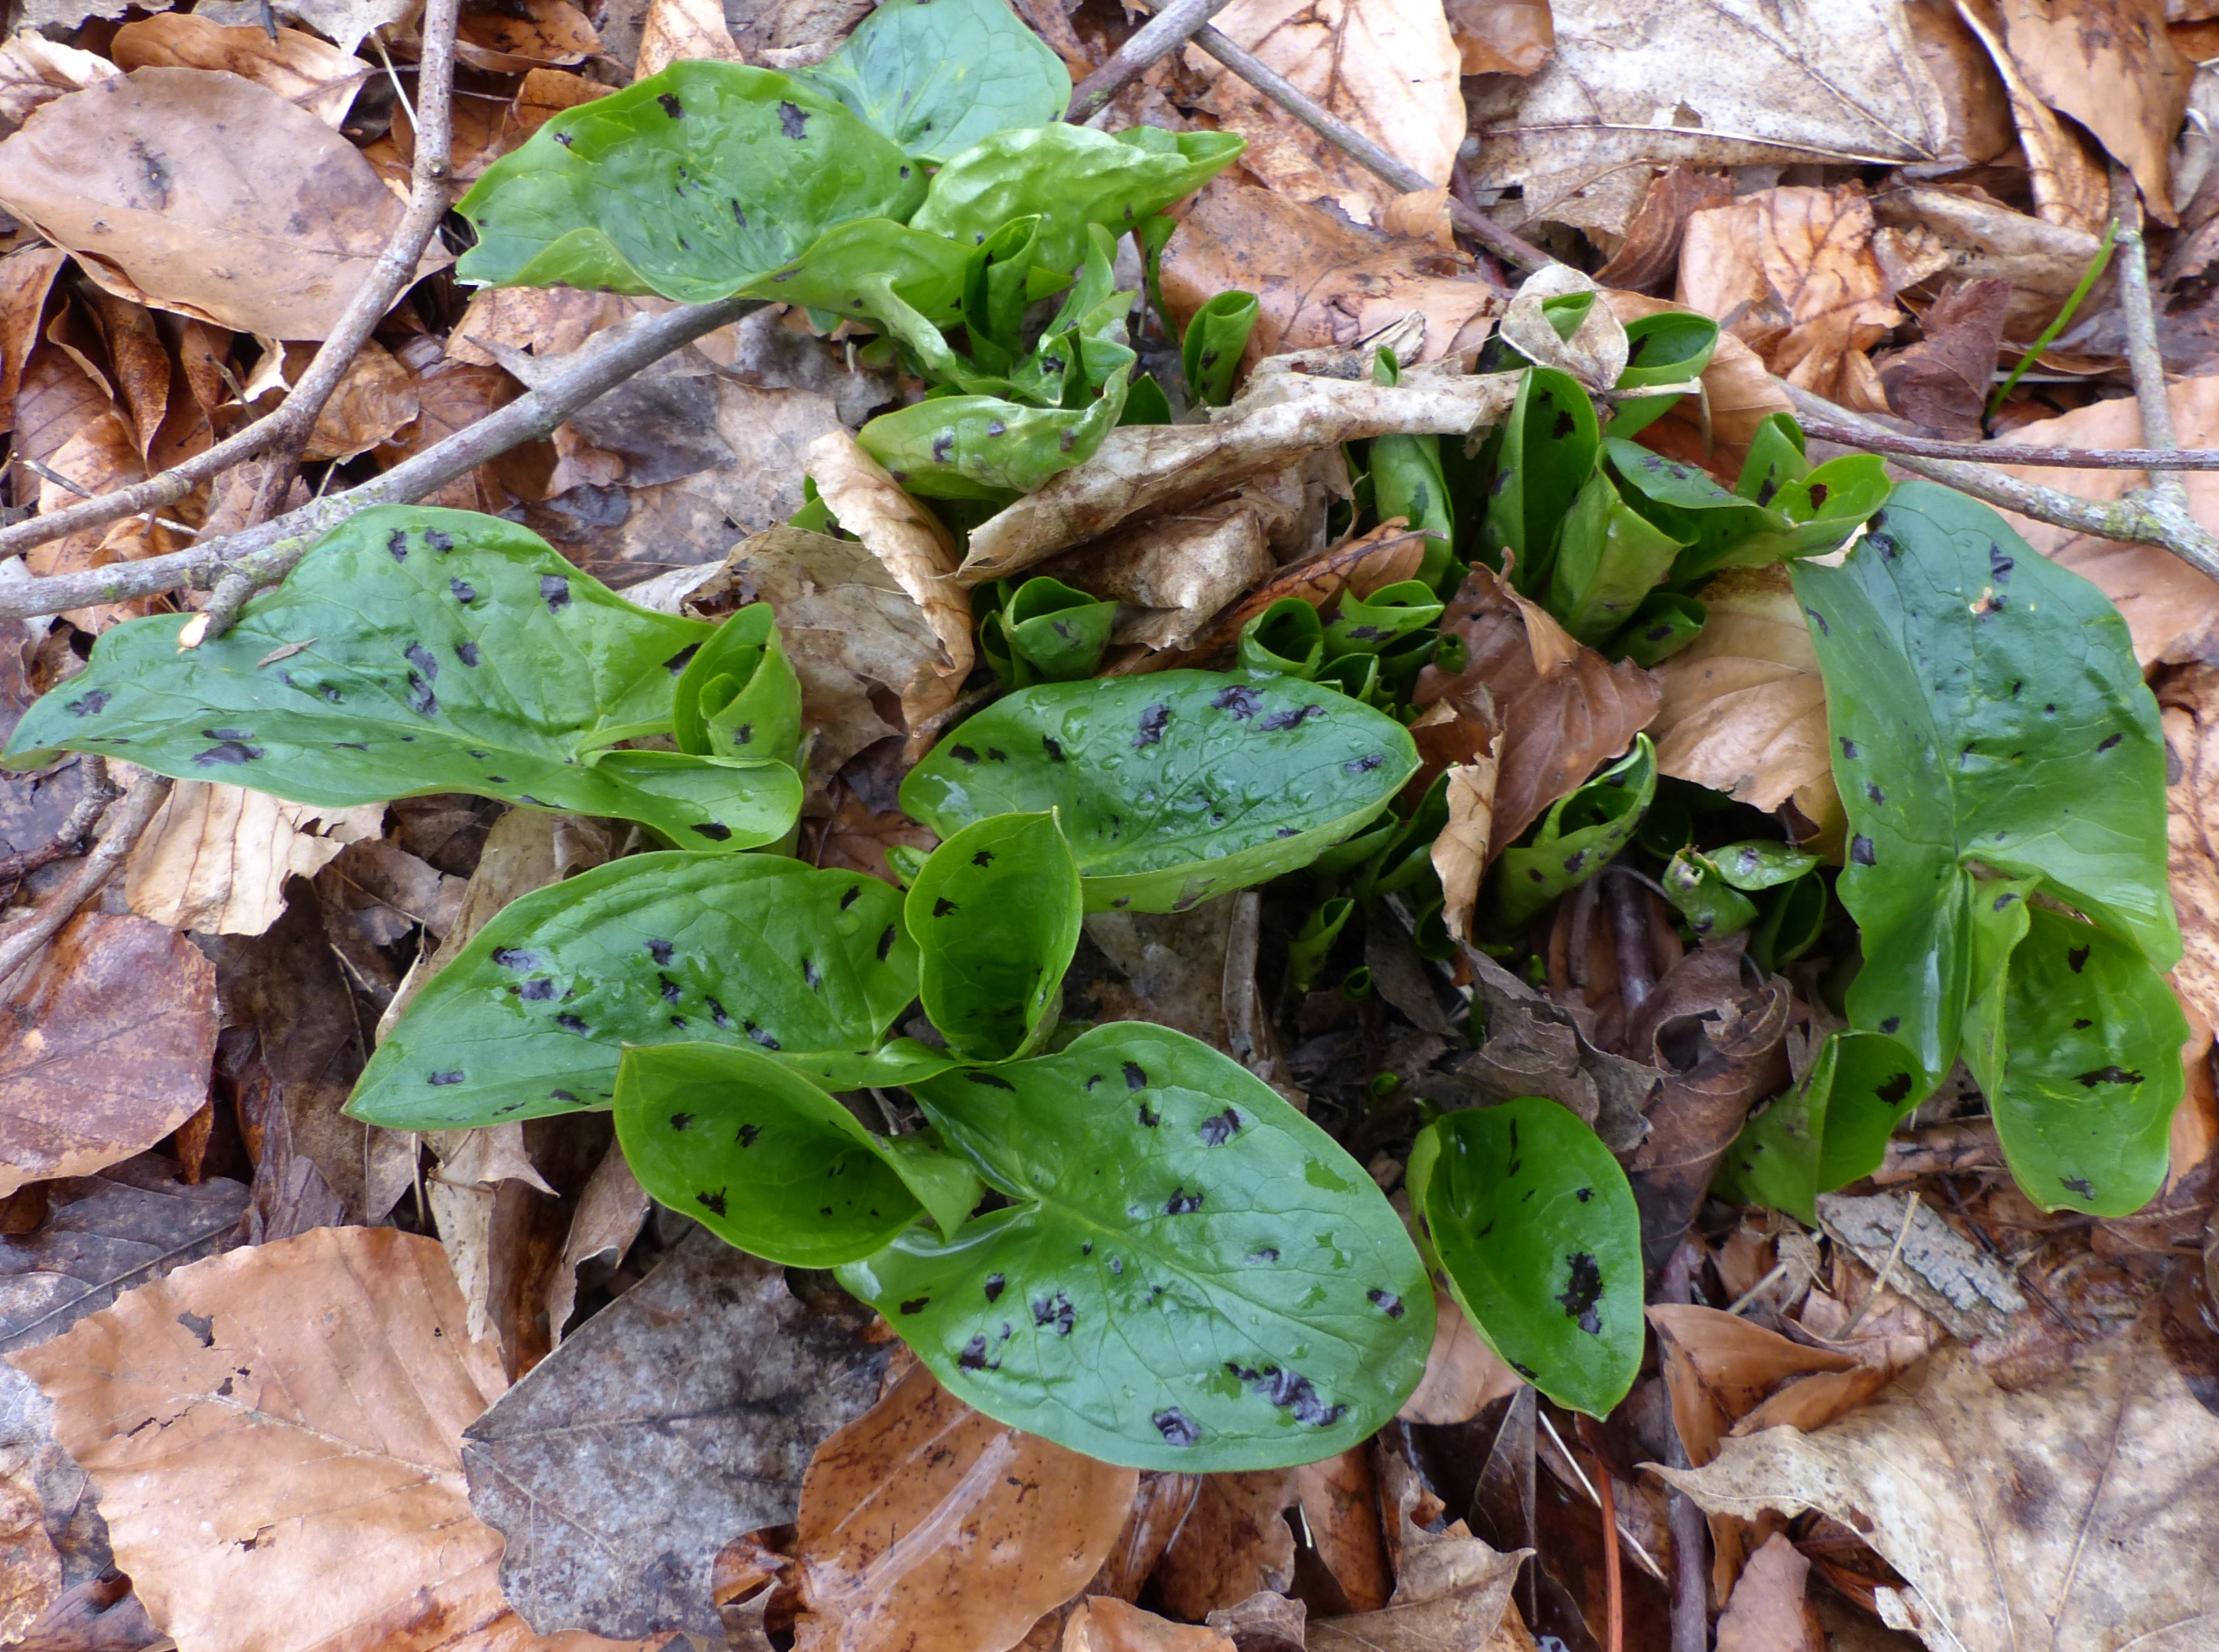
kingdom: Plantae
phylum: Tracheophyta
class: Liliopsida
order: Alismatales
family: Araceae
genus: Arum
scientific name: Arum maculatum
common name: Plettet arum
